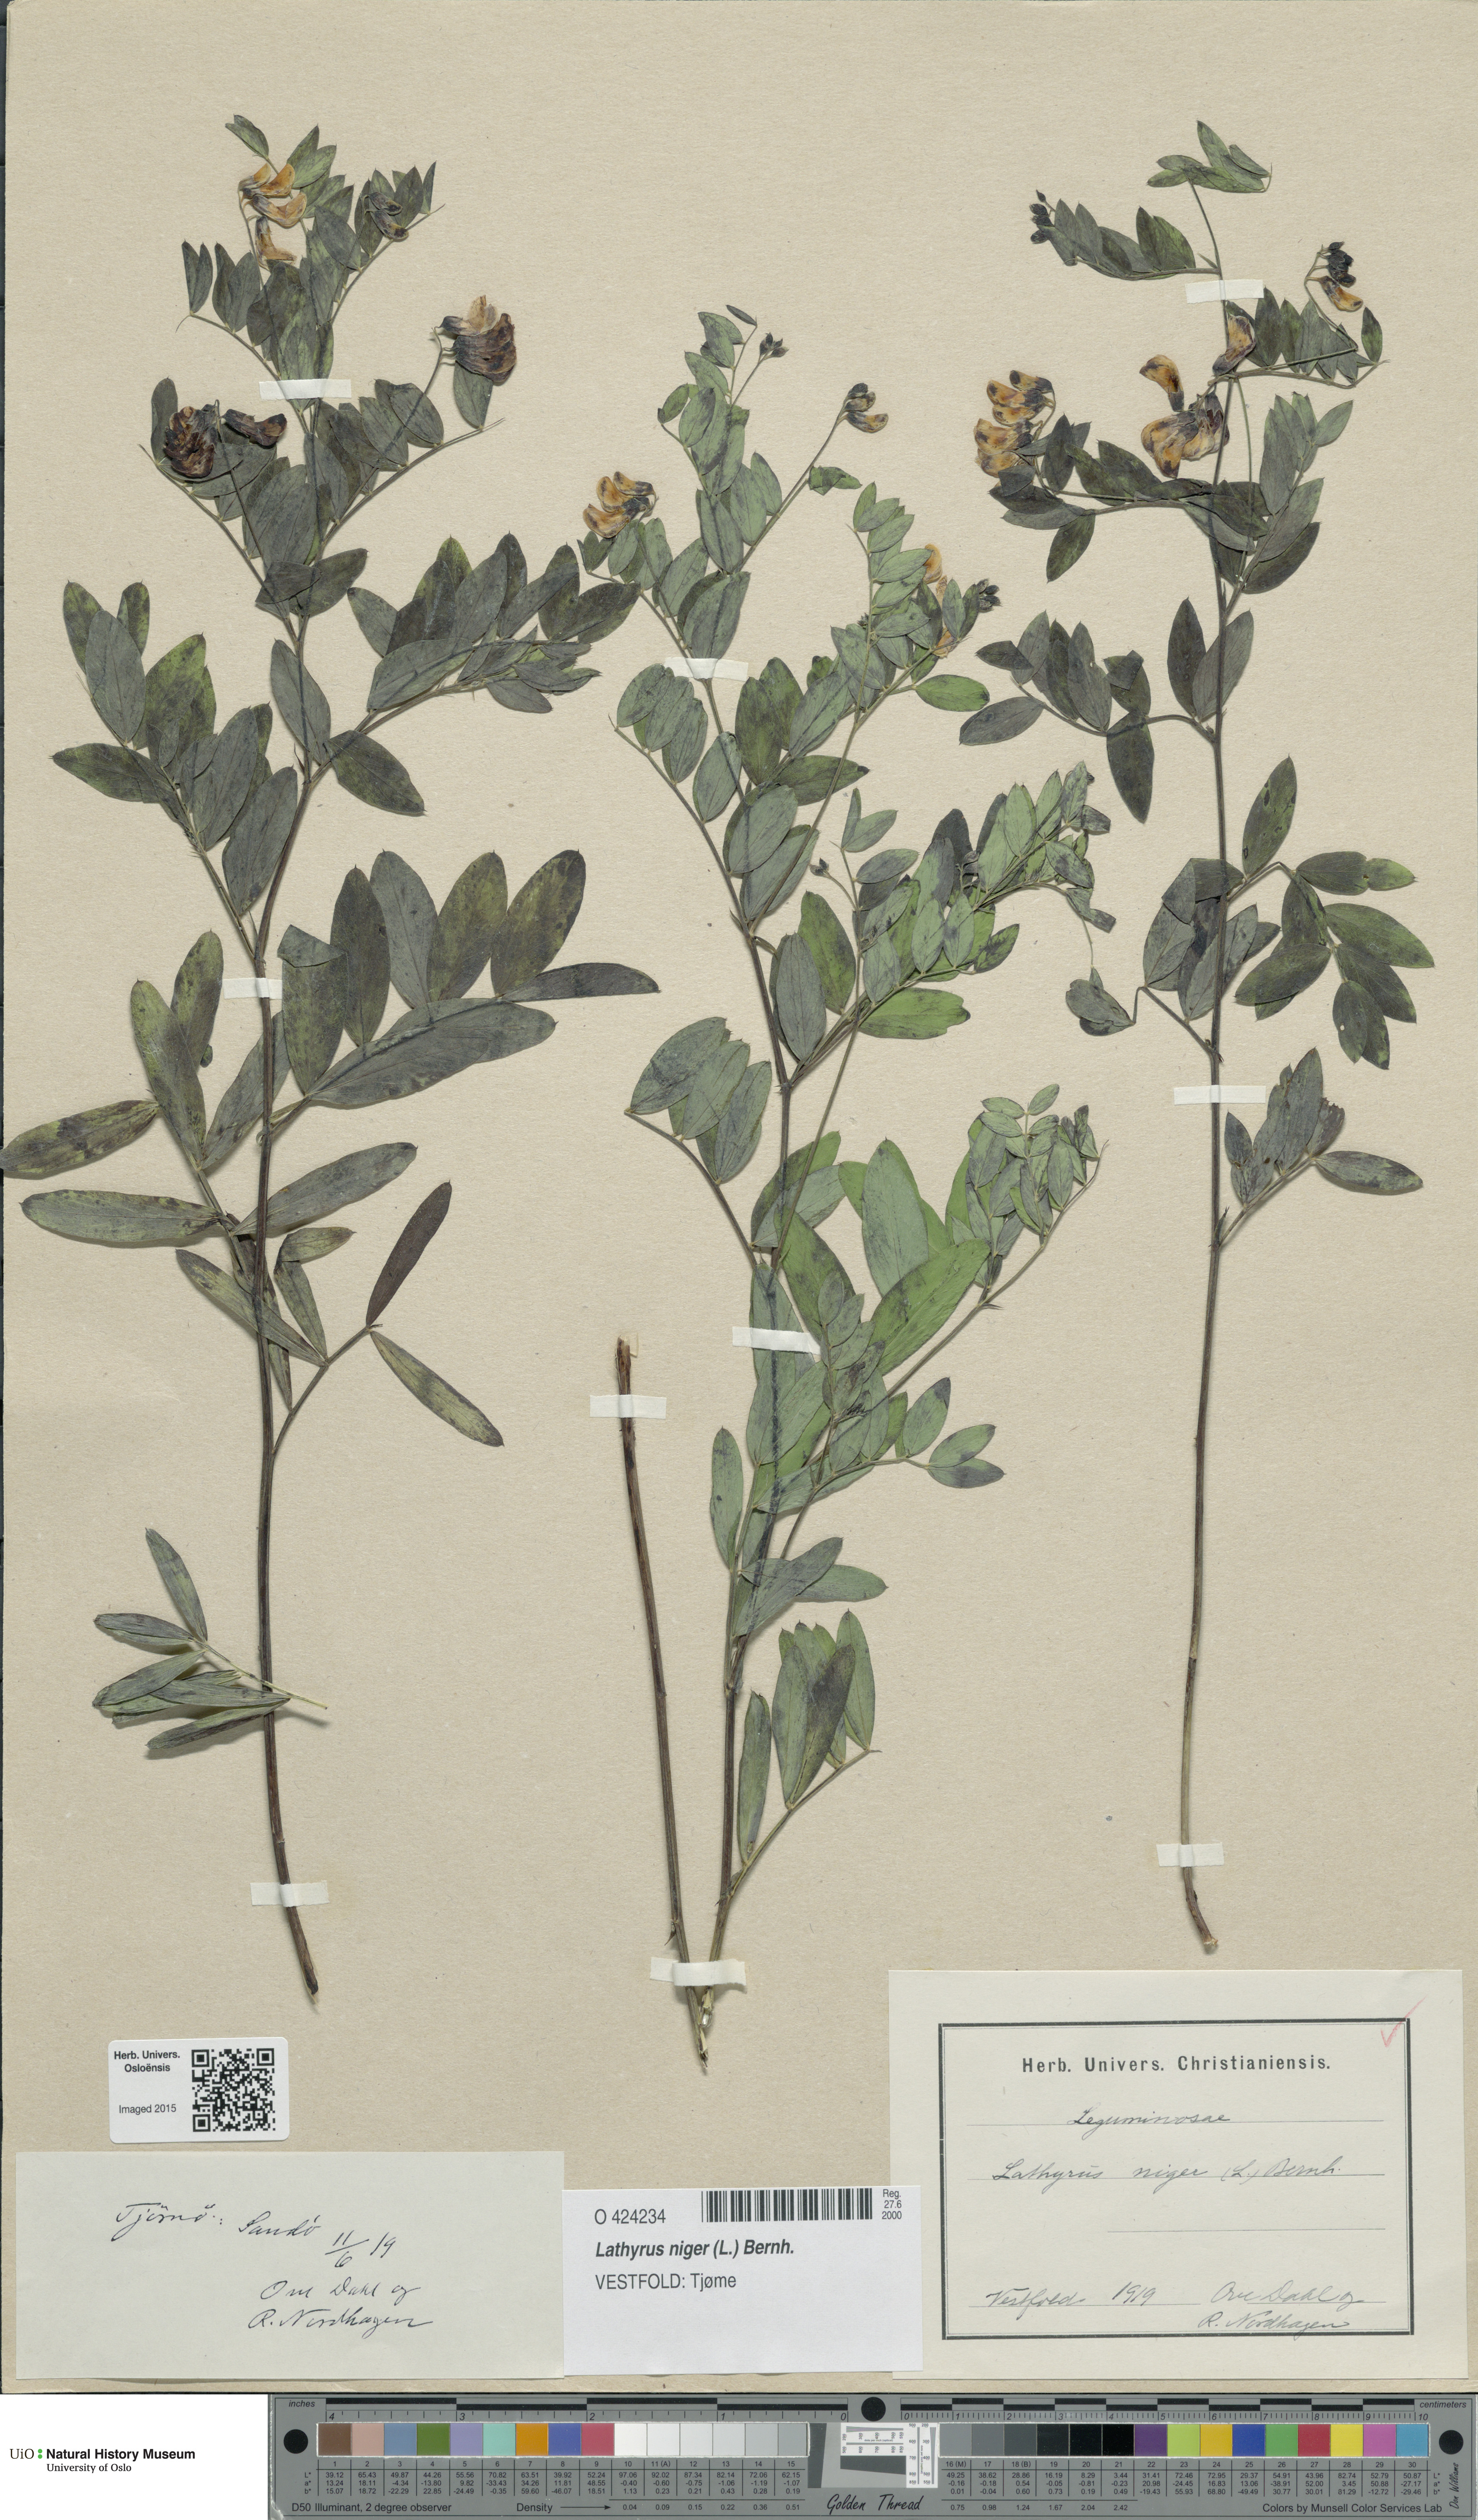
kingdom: Plantae
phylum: Tracheophyta
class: Magnoliopsida
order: Fabales
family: Fabaceae
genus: Lathyrus
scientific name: Lathyrus niger
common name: Black pea
